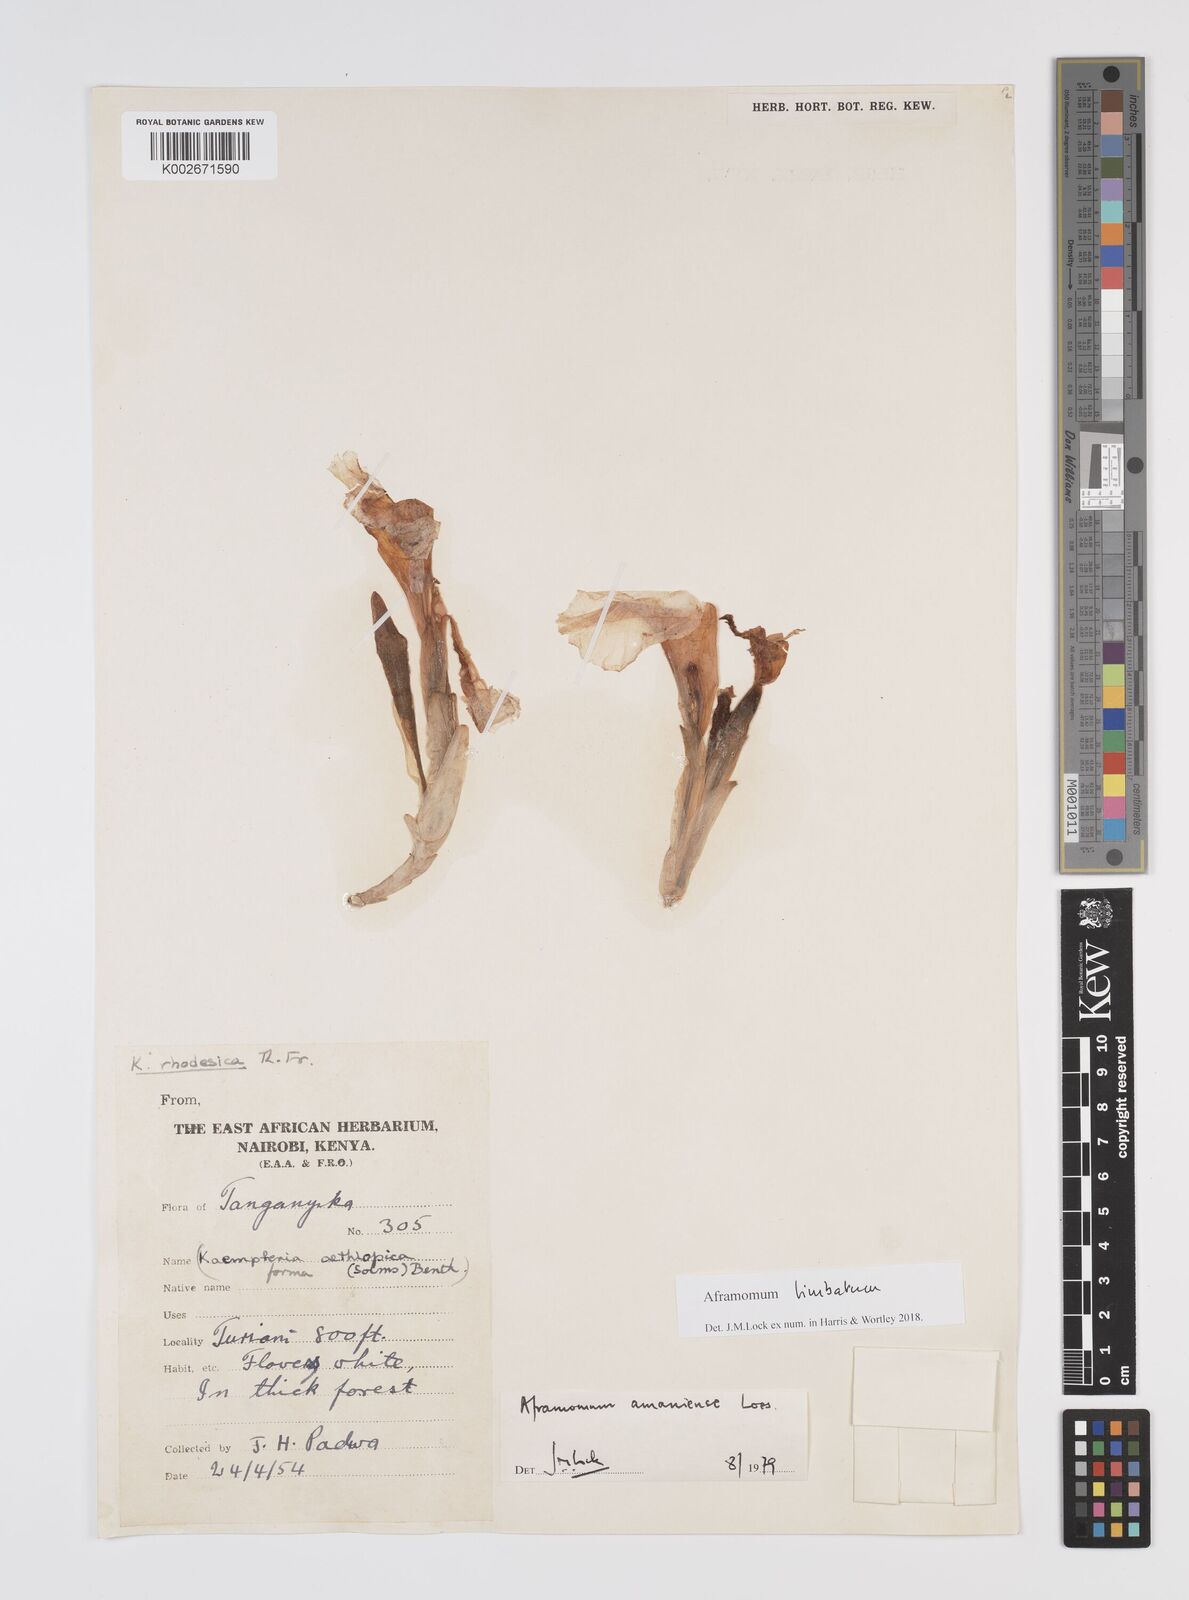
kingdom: Plantae
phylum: Tracheophyta
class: Liliopsida
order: Zingiberales
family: Zingiberaceae
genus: Aframomum
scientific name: Aframomum limbatum
